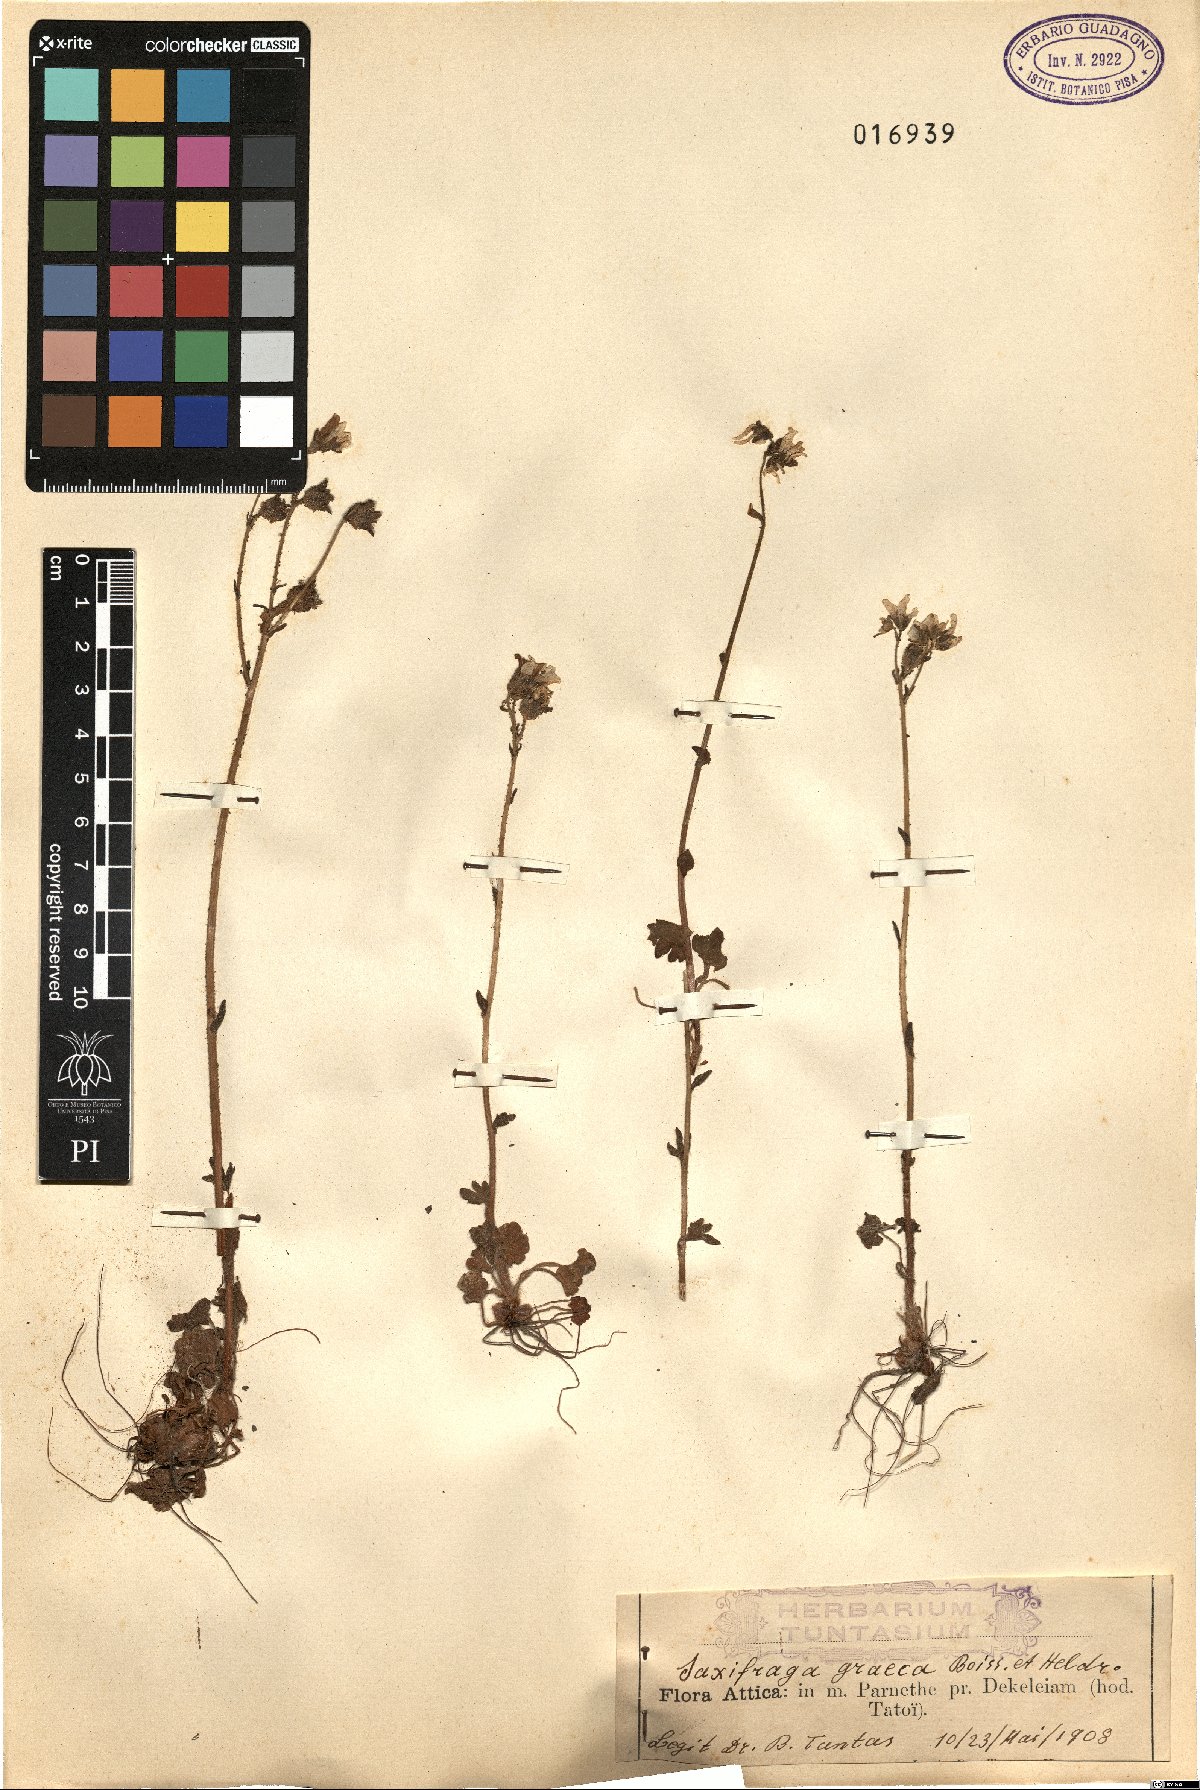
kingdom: Plantae
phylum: Tracheophyta
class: Magnoliopsida
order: Saxifragales
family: Saxifragaceae
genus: Saxifraga
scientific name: Saxifraga carpetana
